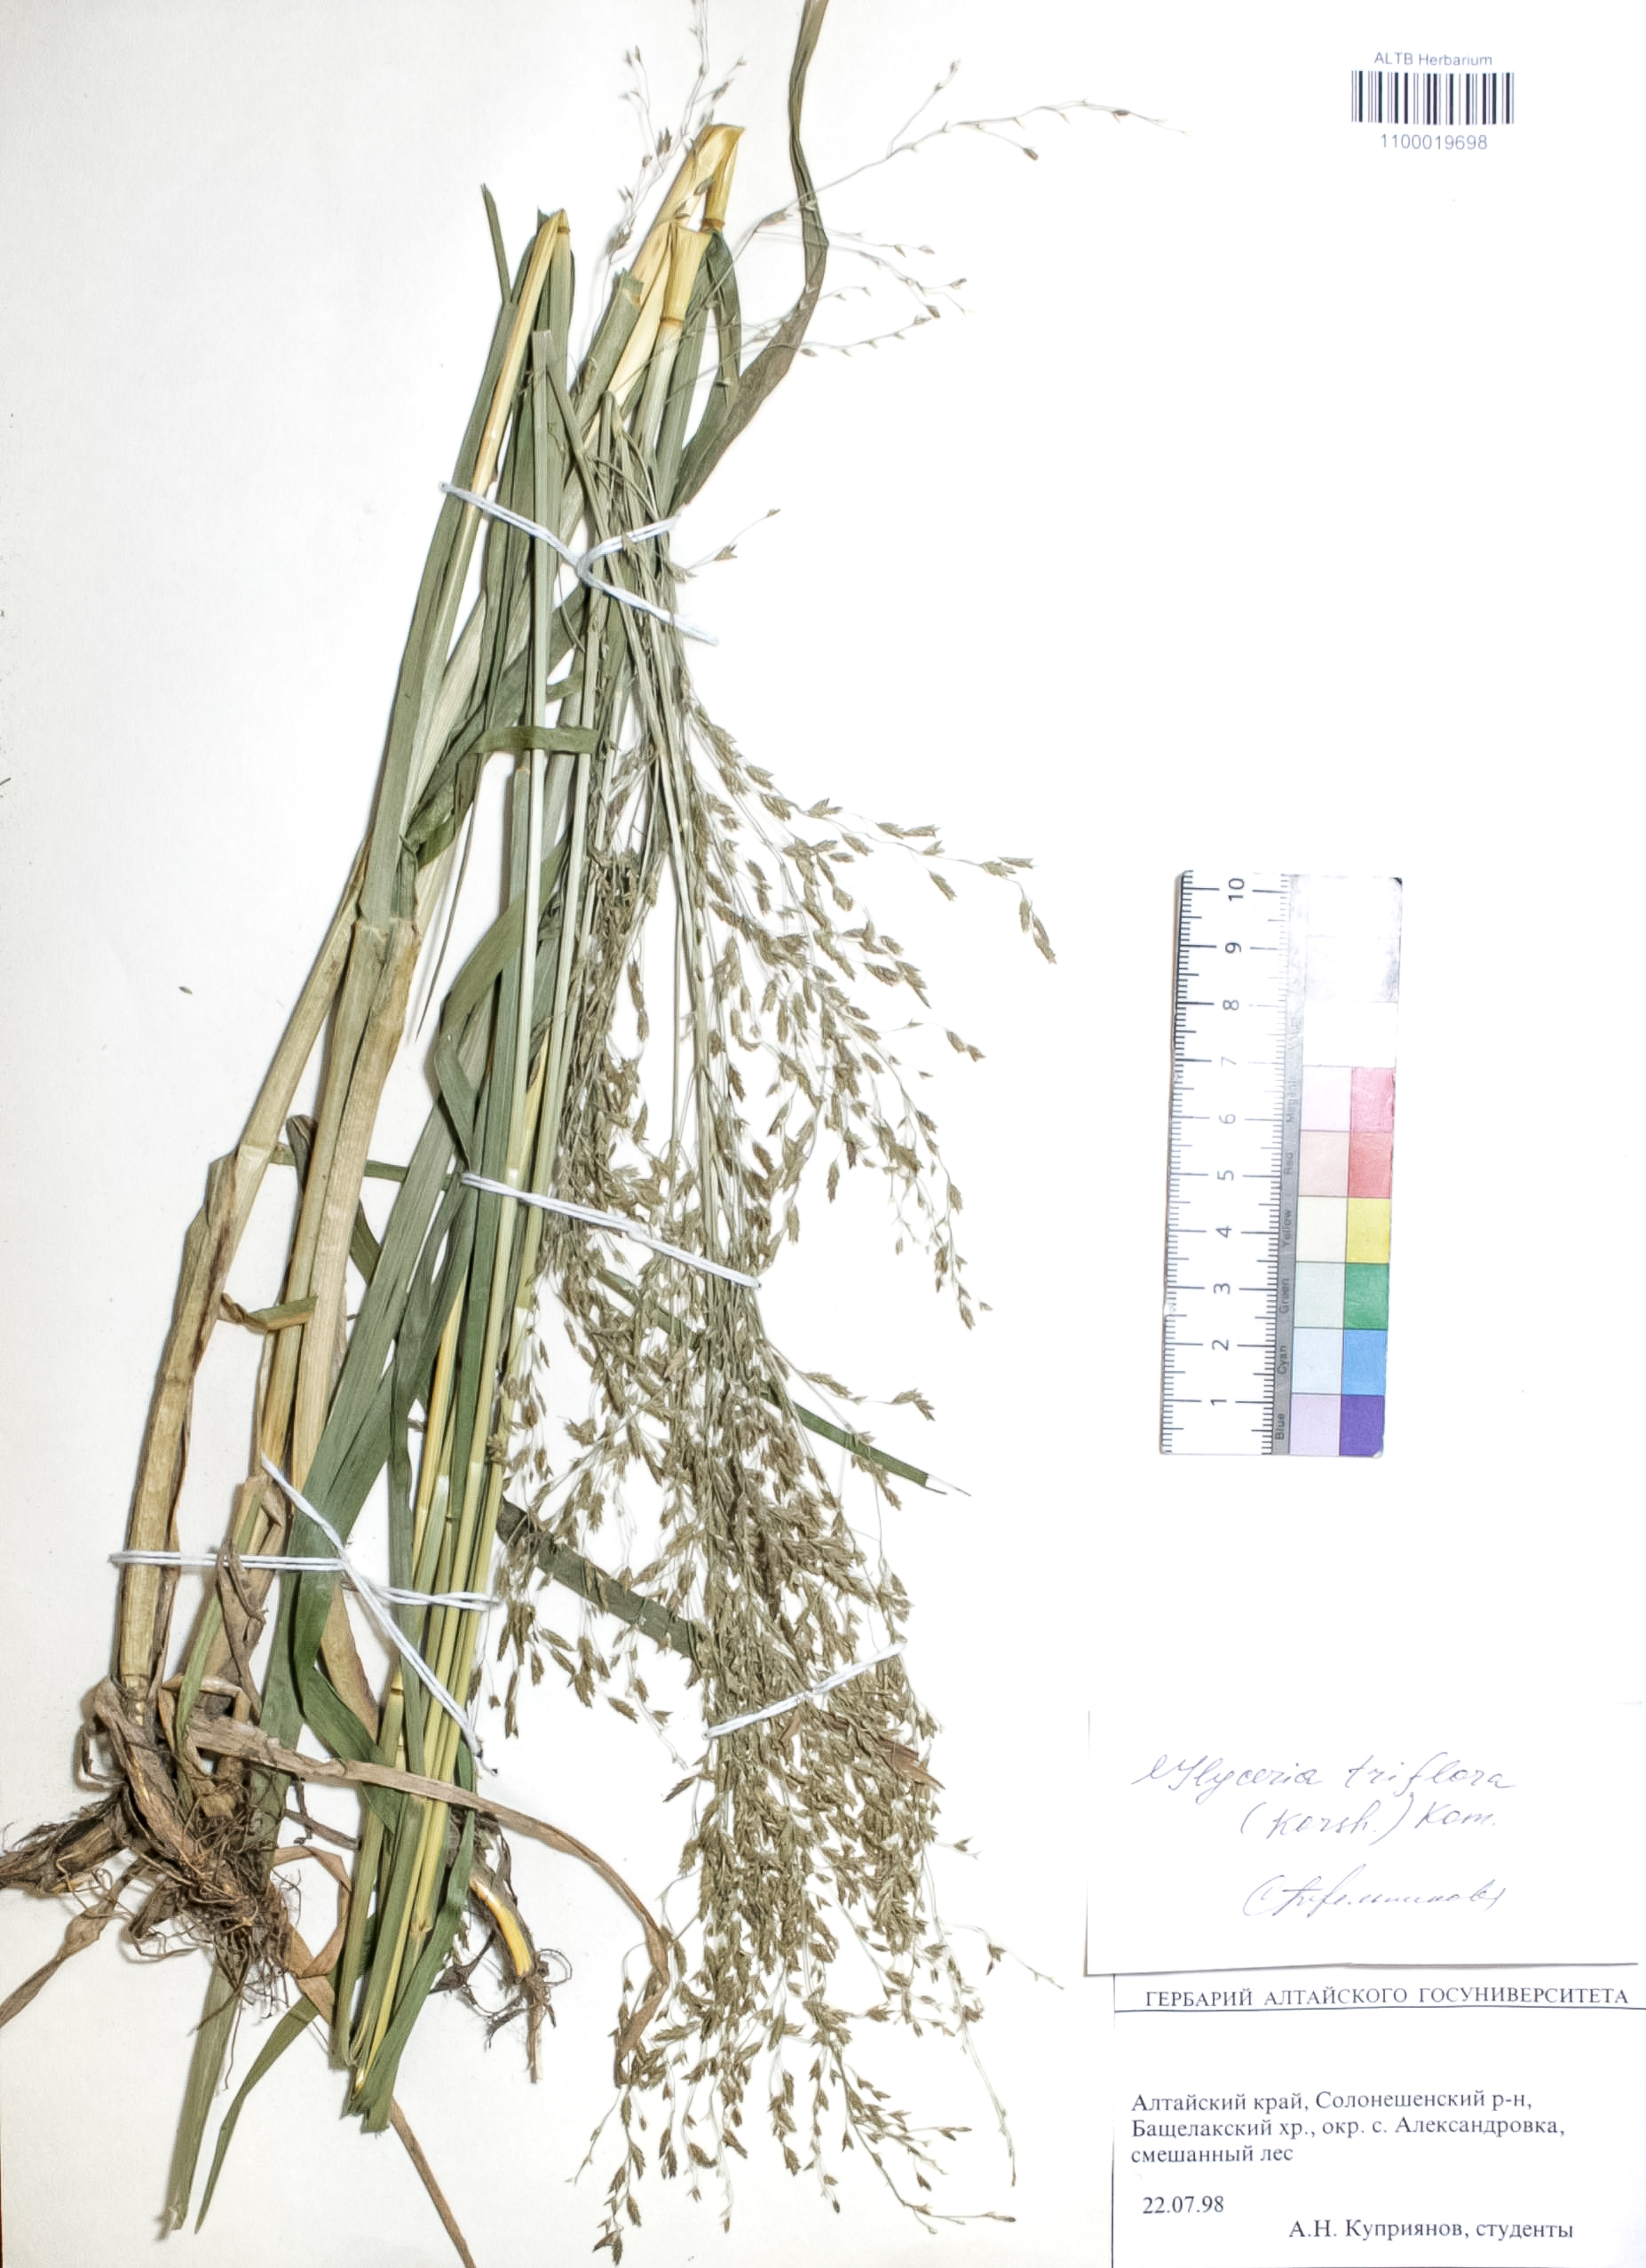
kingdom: Plantae
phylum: Tracheophyta
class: Magnoliopsida
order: Fabales
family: Fabaceae
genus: Astragalus
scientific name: Astragalus testiculatus
